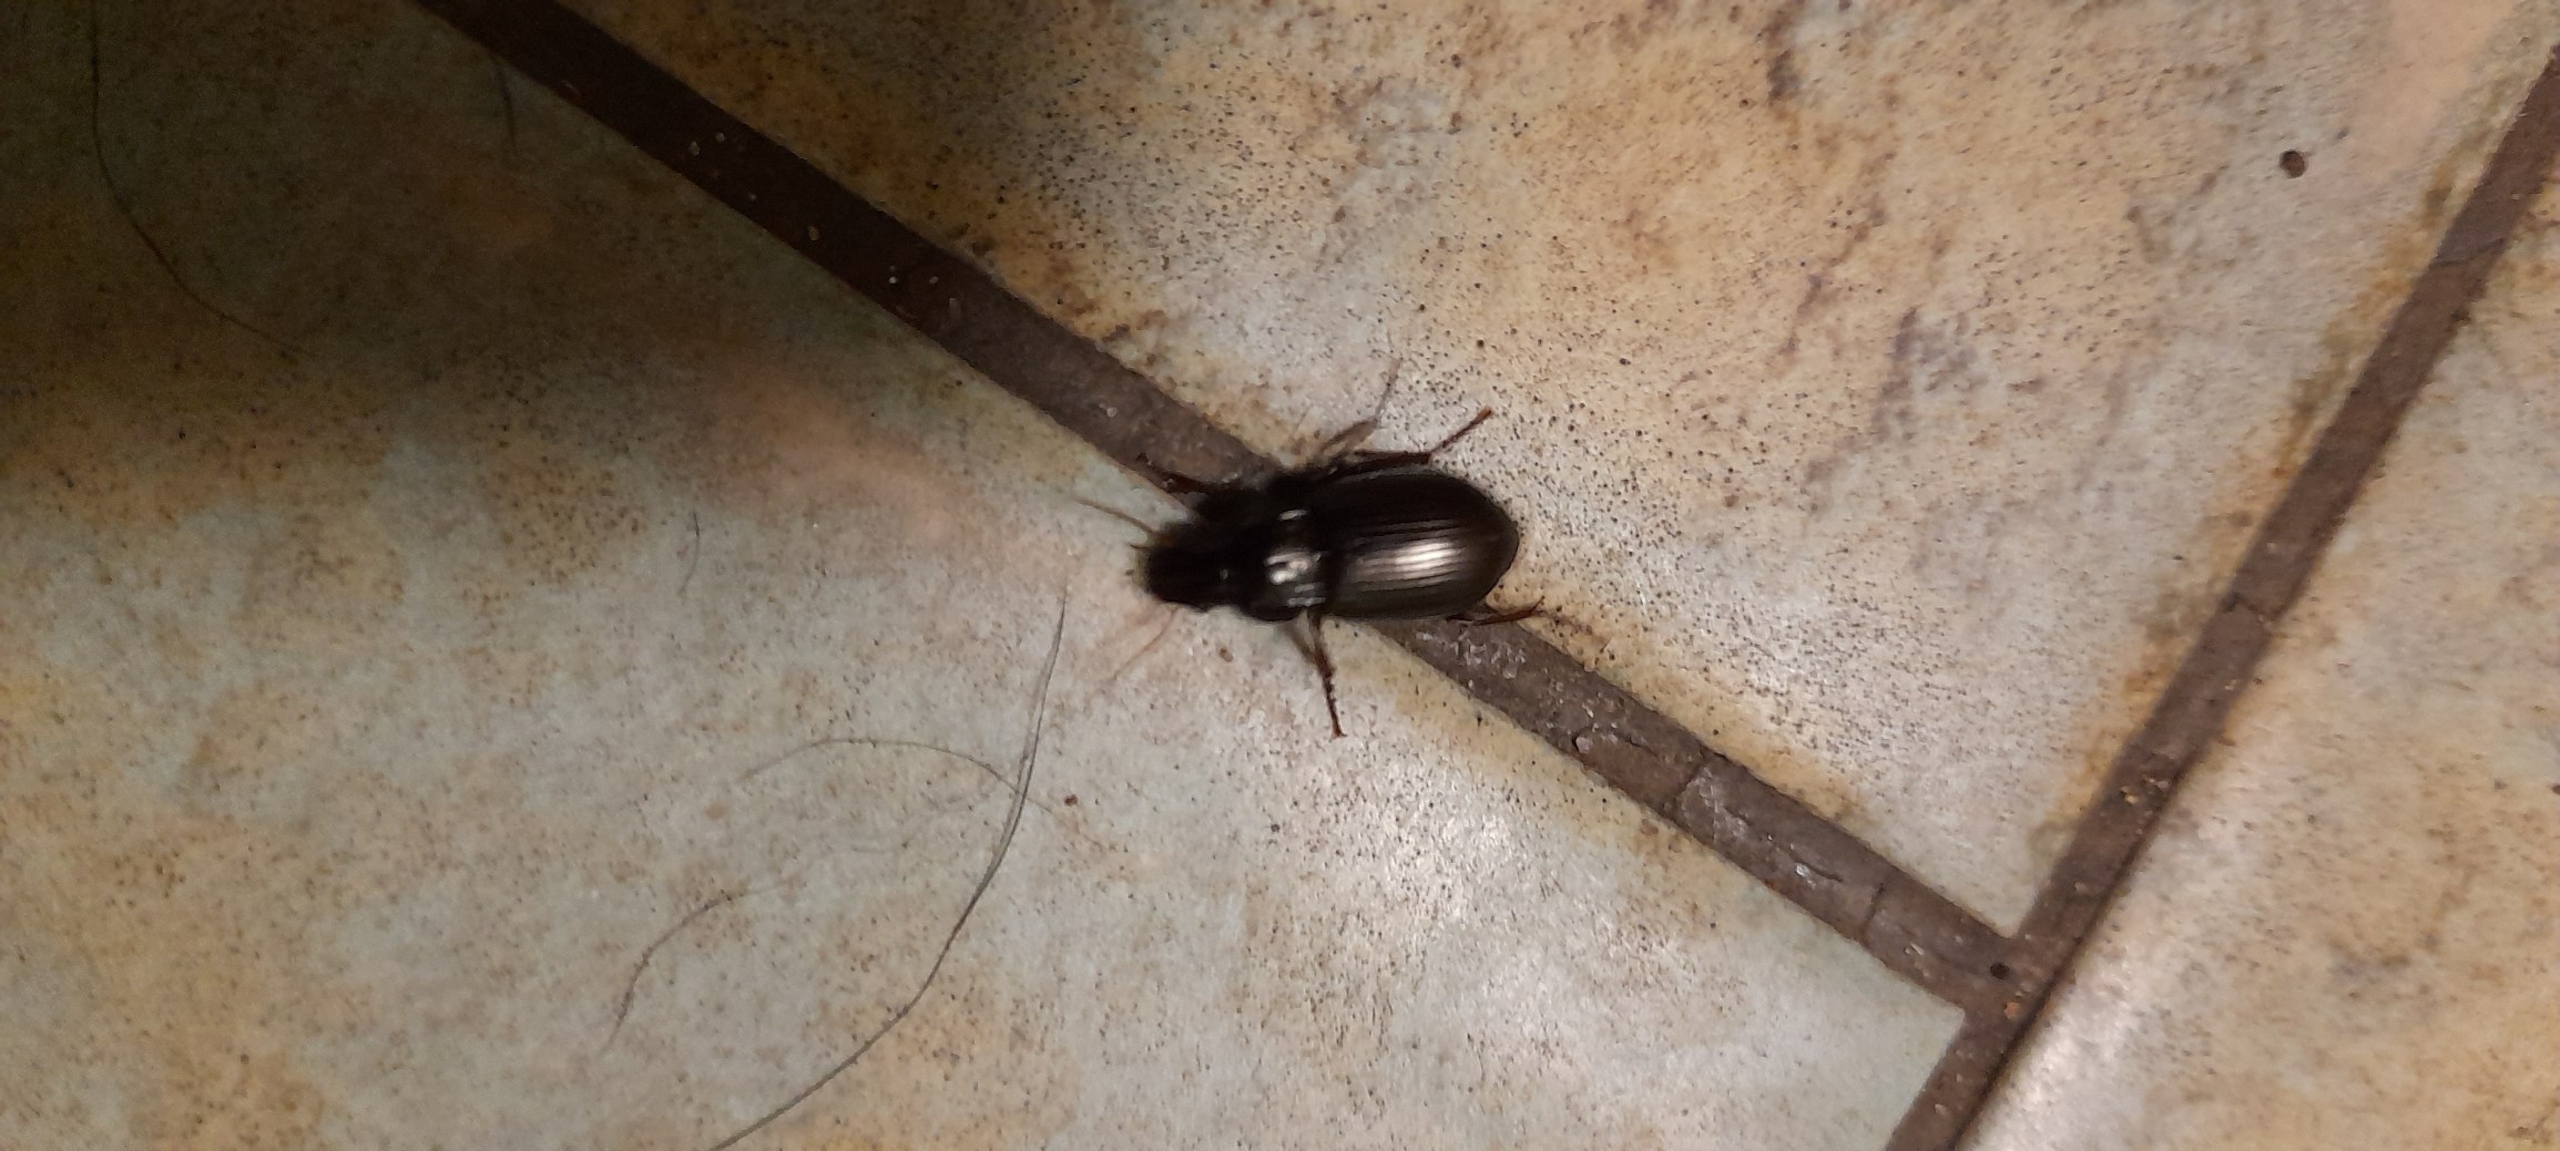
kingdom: Animalia
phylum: Arthropoda
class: Insecta
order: Coleoptera
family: Carabidae
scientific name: Carabidae
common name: Løbebiller
